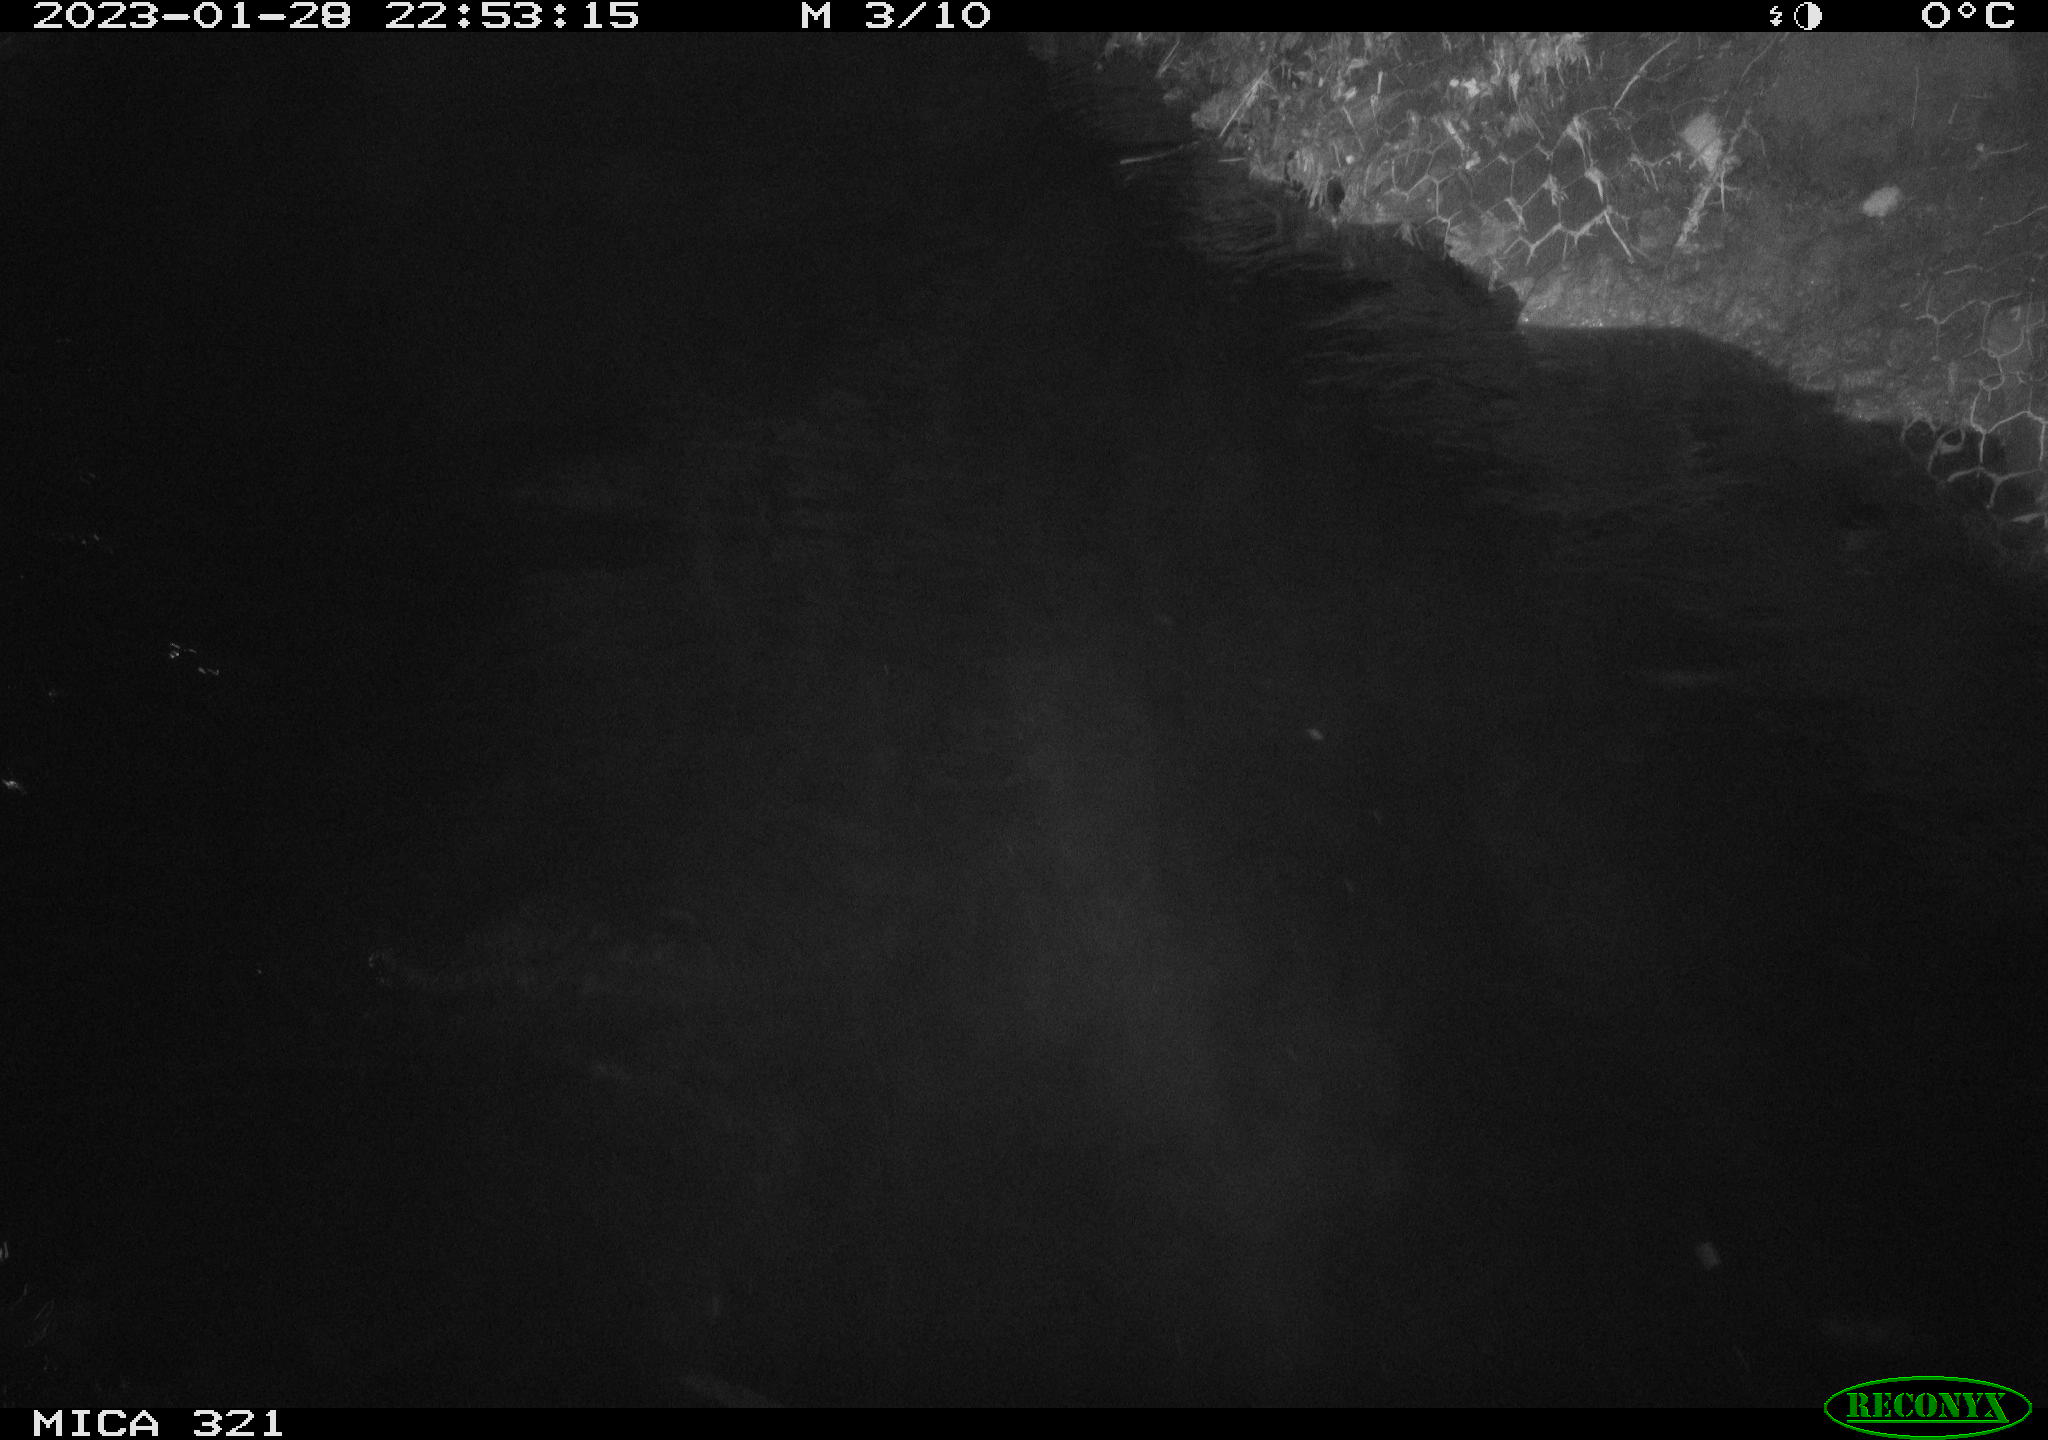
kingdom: Animalia
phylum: Chordata
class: Aves
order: Anseriformes
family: Anatidae
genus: Anas
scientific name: Anas
